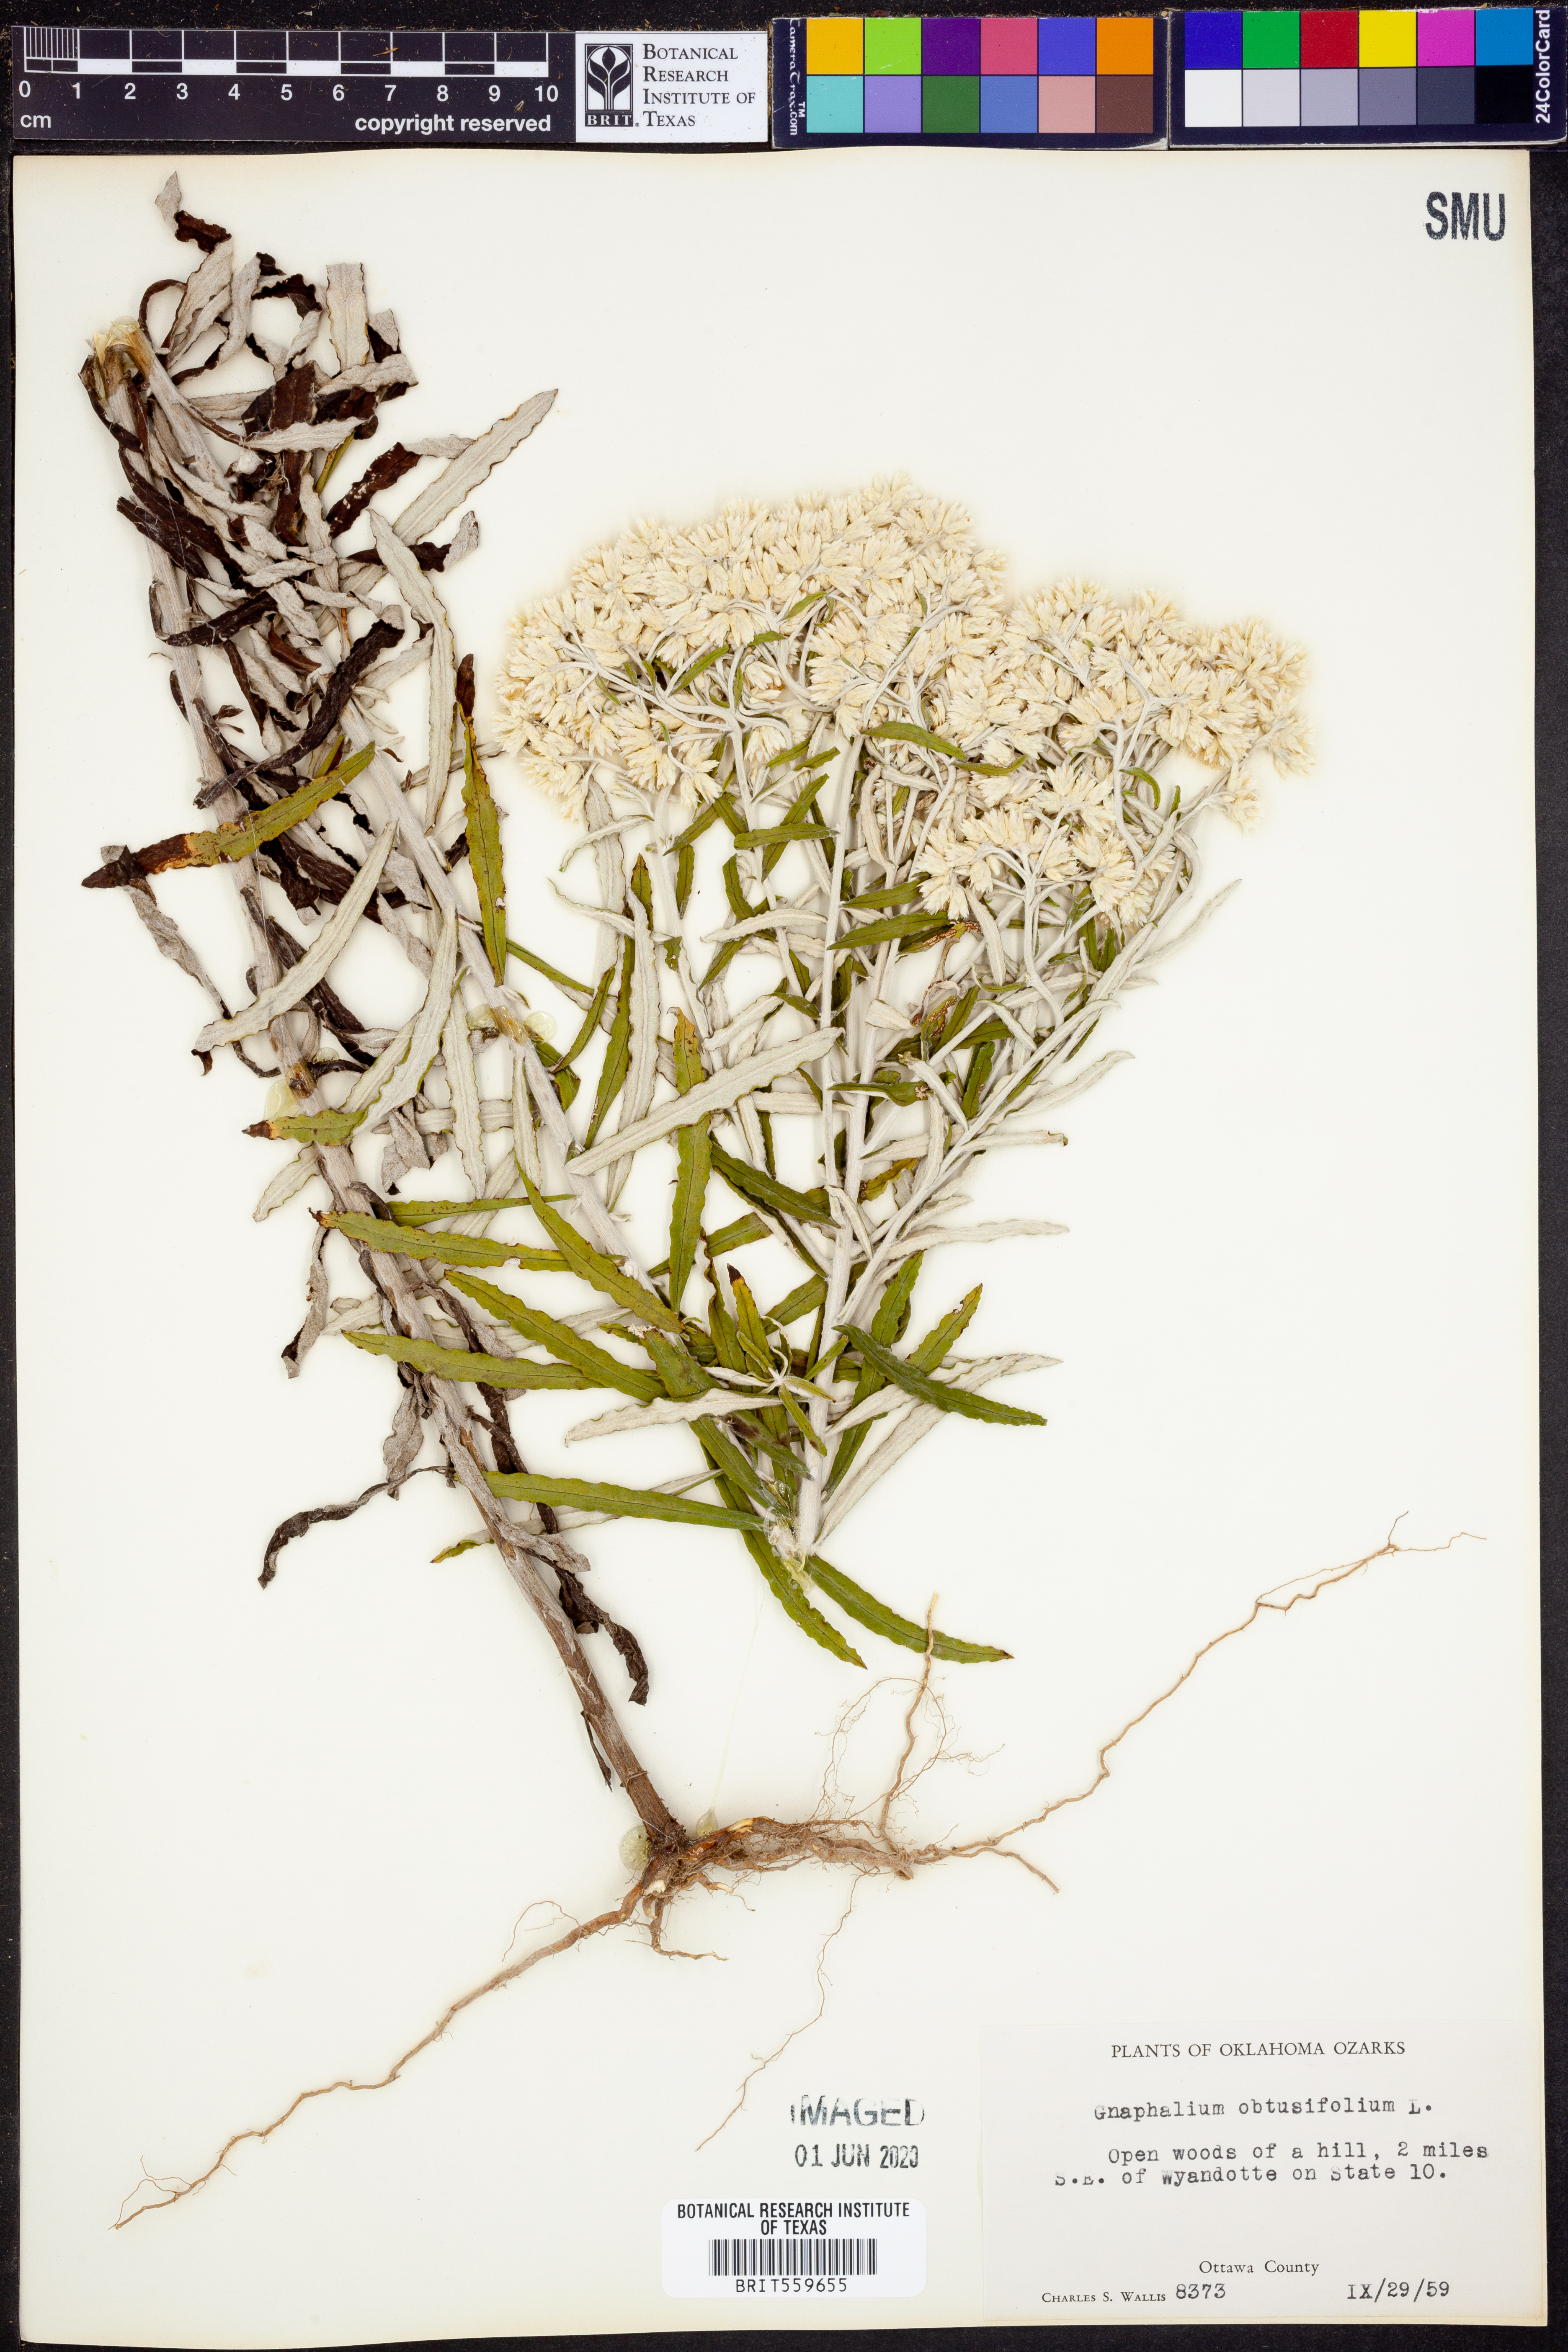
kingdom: Plantae
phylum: Tracheophyta
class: Magnoliopsida
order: Asterales
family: Asteraceae
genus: Pseudognaphalium
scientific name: Pseudognaphalium obtusifolium
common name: Eastern rabbit-tobacco
